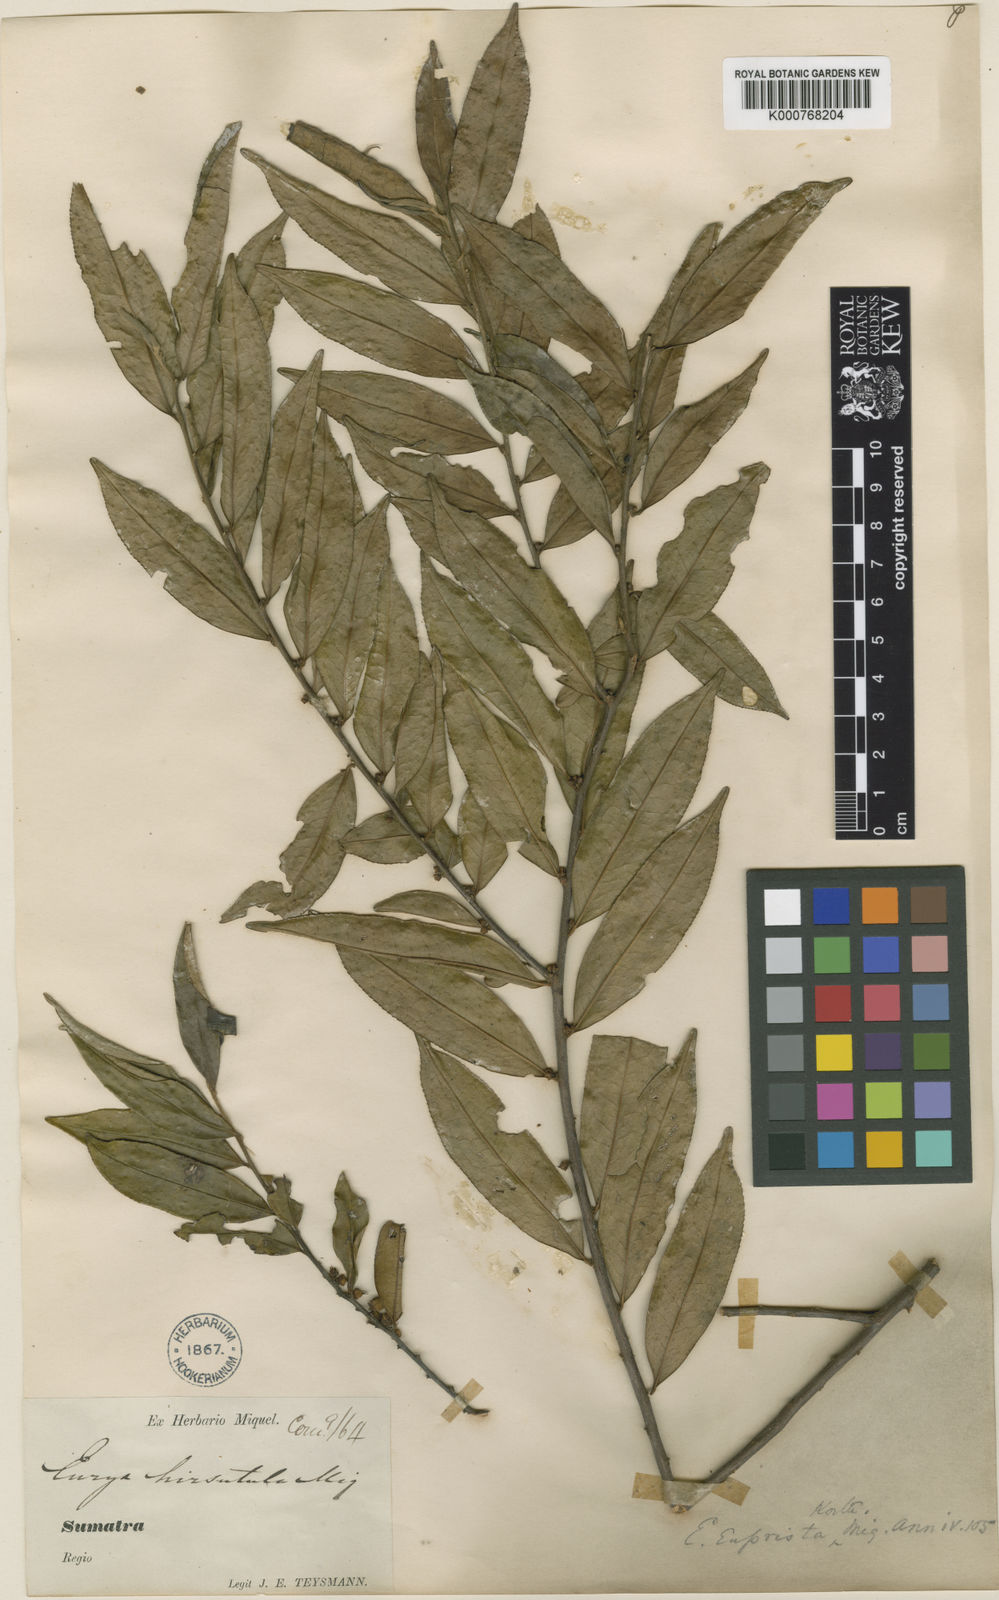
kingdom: Plantae
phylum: Tracheophyta
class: Magnoliopsida
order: Ericales
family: Pentaphylacaceae
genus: Eurya
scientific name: Eurya acuminata
